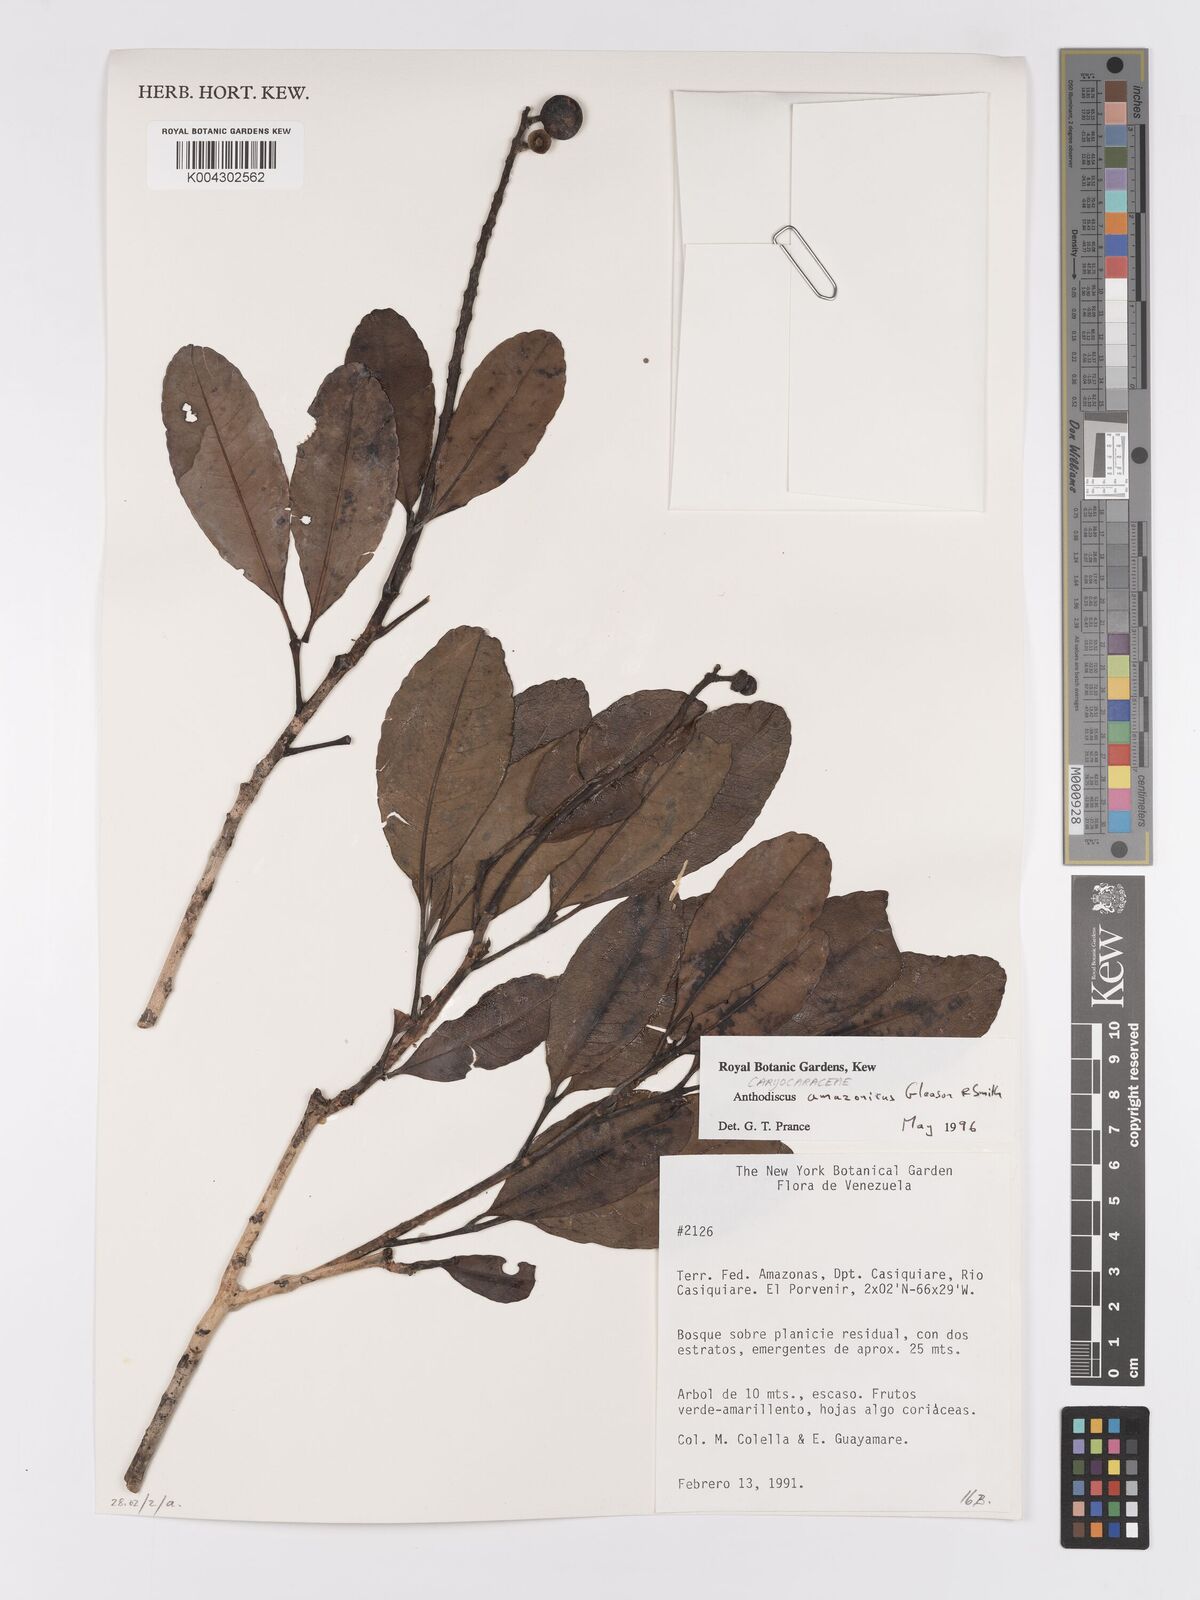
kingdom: Plantae
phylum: Tracheophyta
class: Magnoliopsida
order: Malpighiales
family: Caryocaraceae
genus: Anthodiscus
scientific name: Anthodiscus amazonicus
